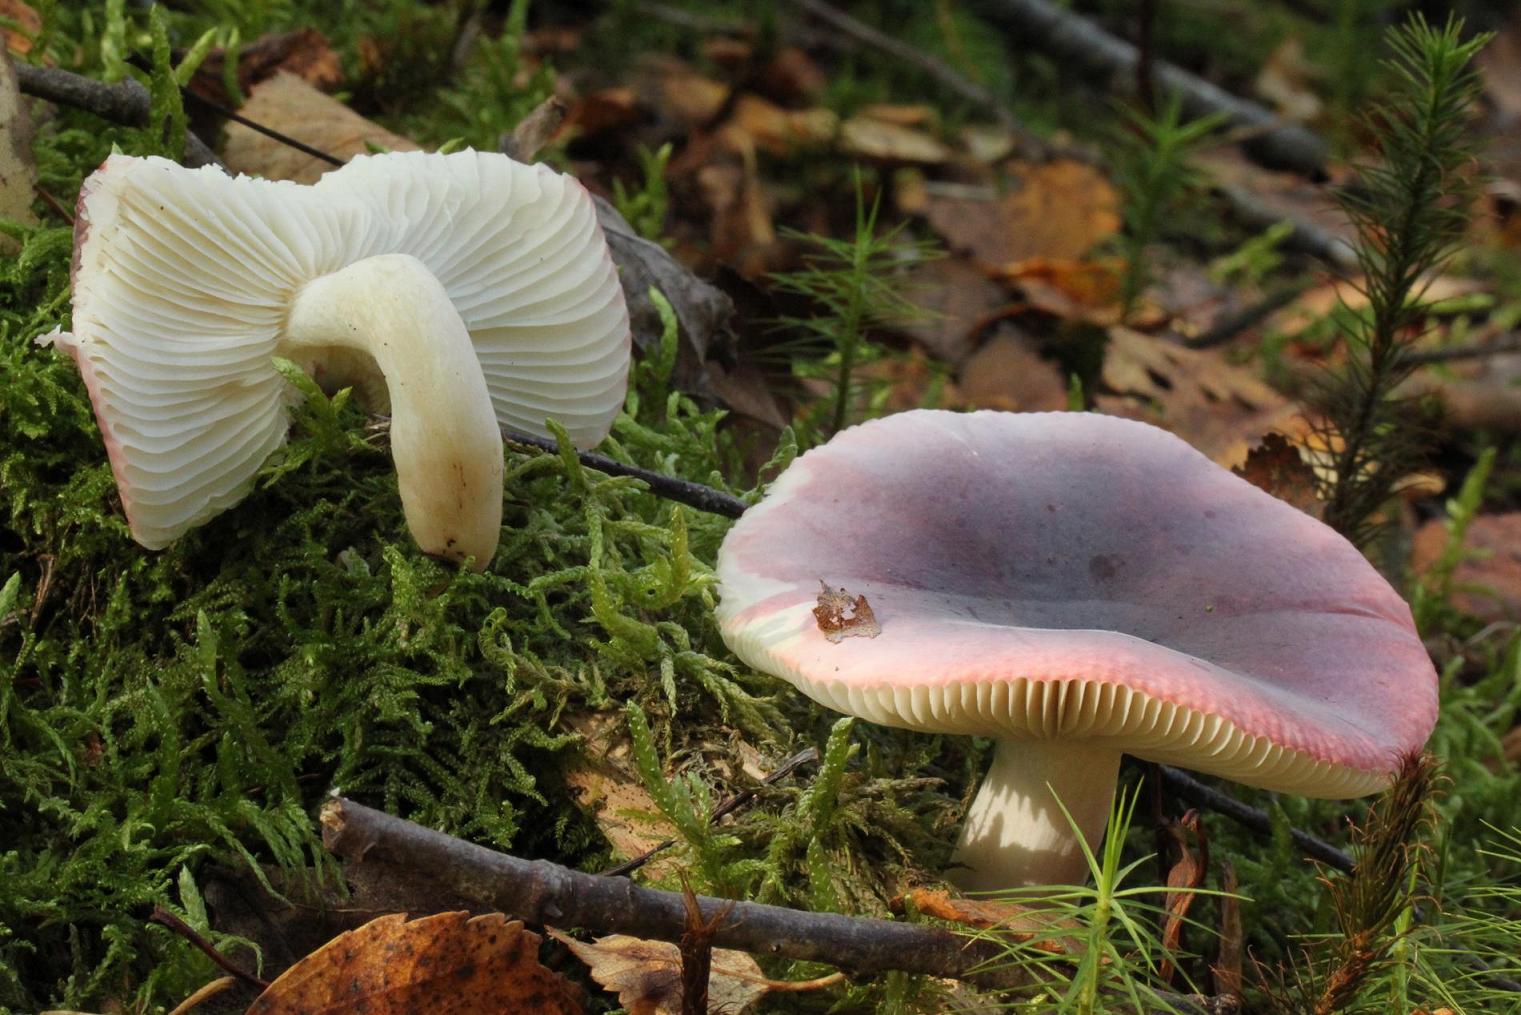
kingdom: Fungi
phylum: Basidiomycota
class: Agaricomycetes
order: Russulales
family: Russulaceae
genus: Russula
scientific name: Russula pelargonia
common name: pelargonie-skørhat
